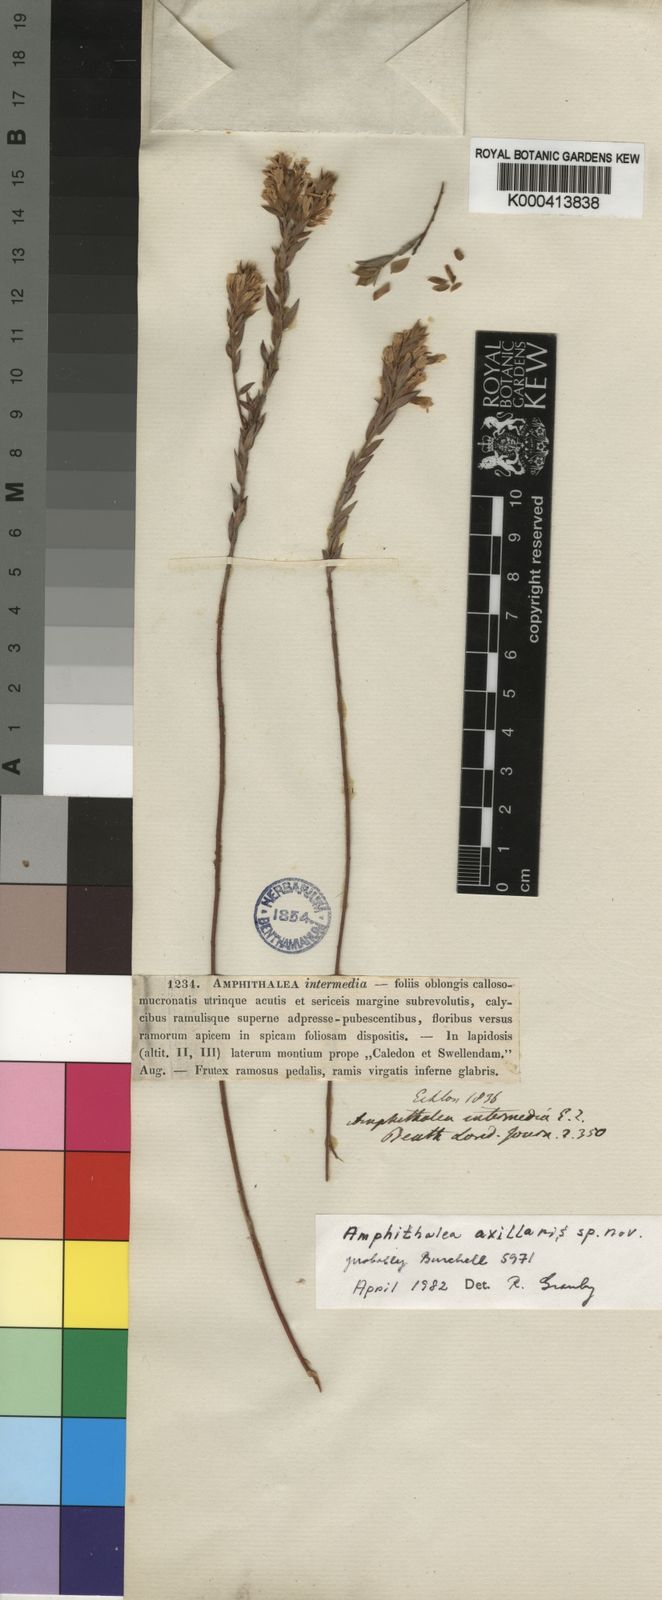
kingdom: Plantae
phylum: Tracheophyta
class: Magnoliopsida
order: Fabales
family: Fabaceae
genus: Amphithalea
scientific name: Amphithalea intermedia
